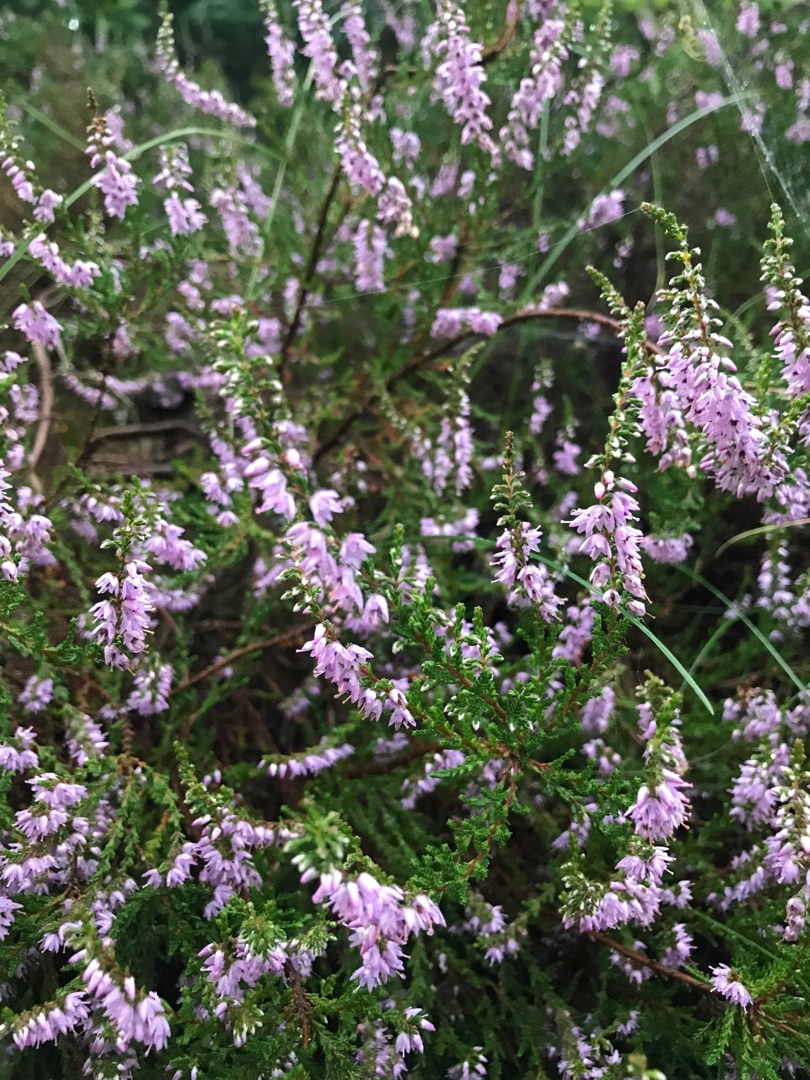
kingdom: Plantae
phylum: Tracheophyta
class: Magnoliopsida
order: Ericales
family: Ericaceae
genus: Calluna
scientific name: Calluna vulgaris
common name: Hedelyng
